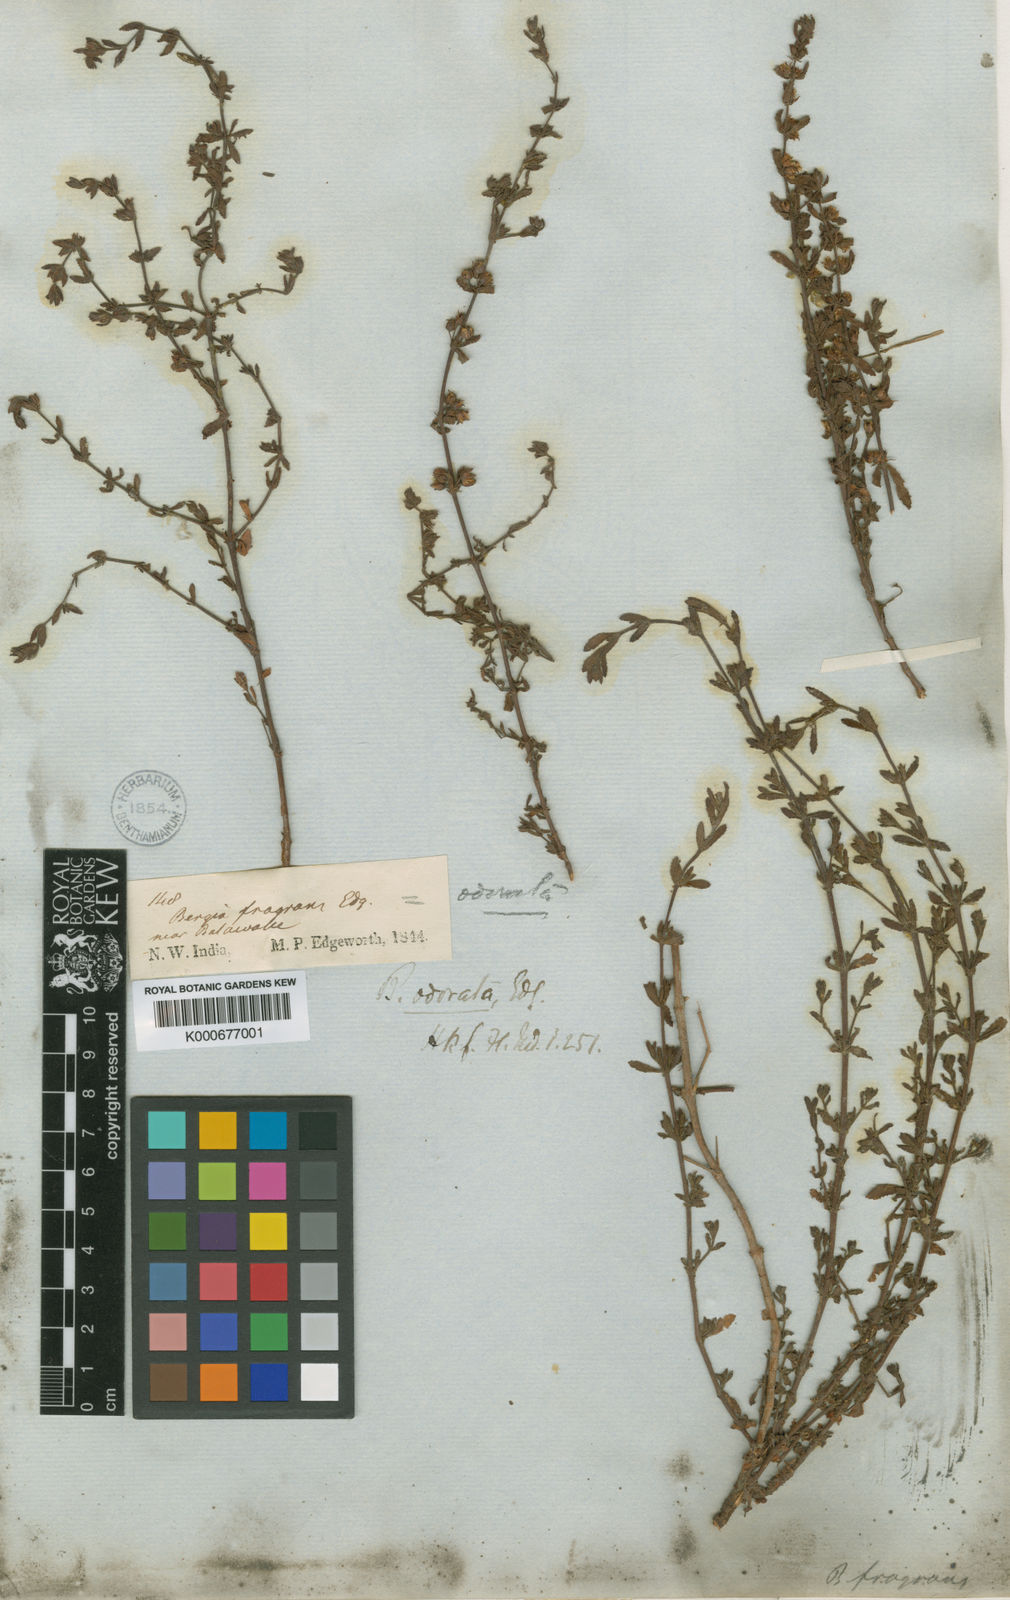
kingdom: Plantae
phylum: Tracheophyta
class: Magnoliopsida
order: Malpighiales
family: Elatinaceae
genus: Bergia
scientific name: Bergia suffruticosa
